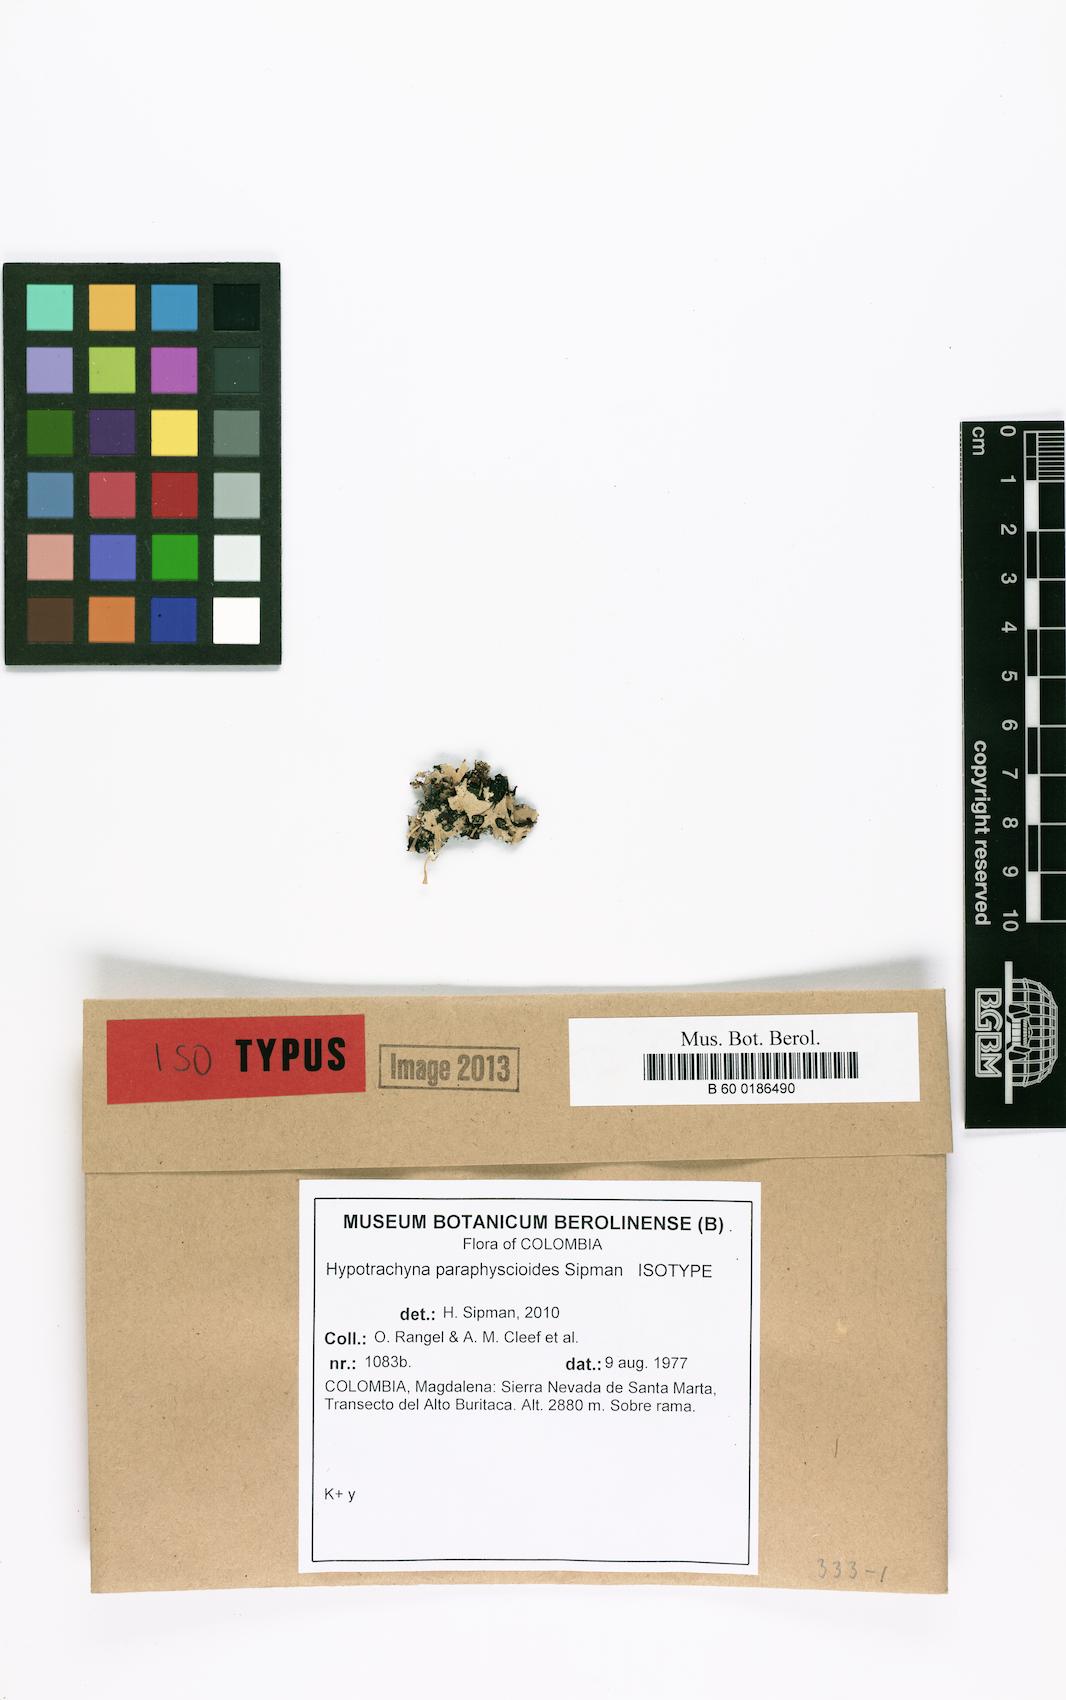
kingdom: Fungi
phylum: Ascomycota
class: Lecanoromycetes
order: Lecanorales
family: Parmeliaceae
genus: Hypotrachyna
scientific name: Hypotrachyna paraphyscioides
